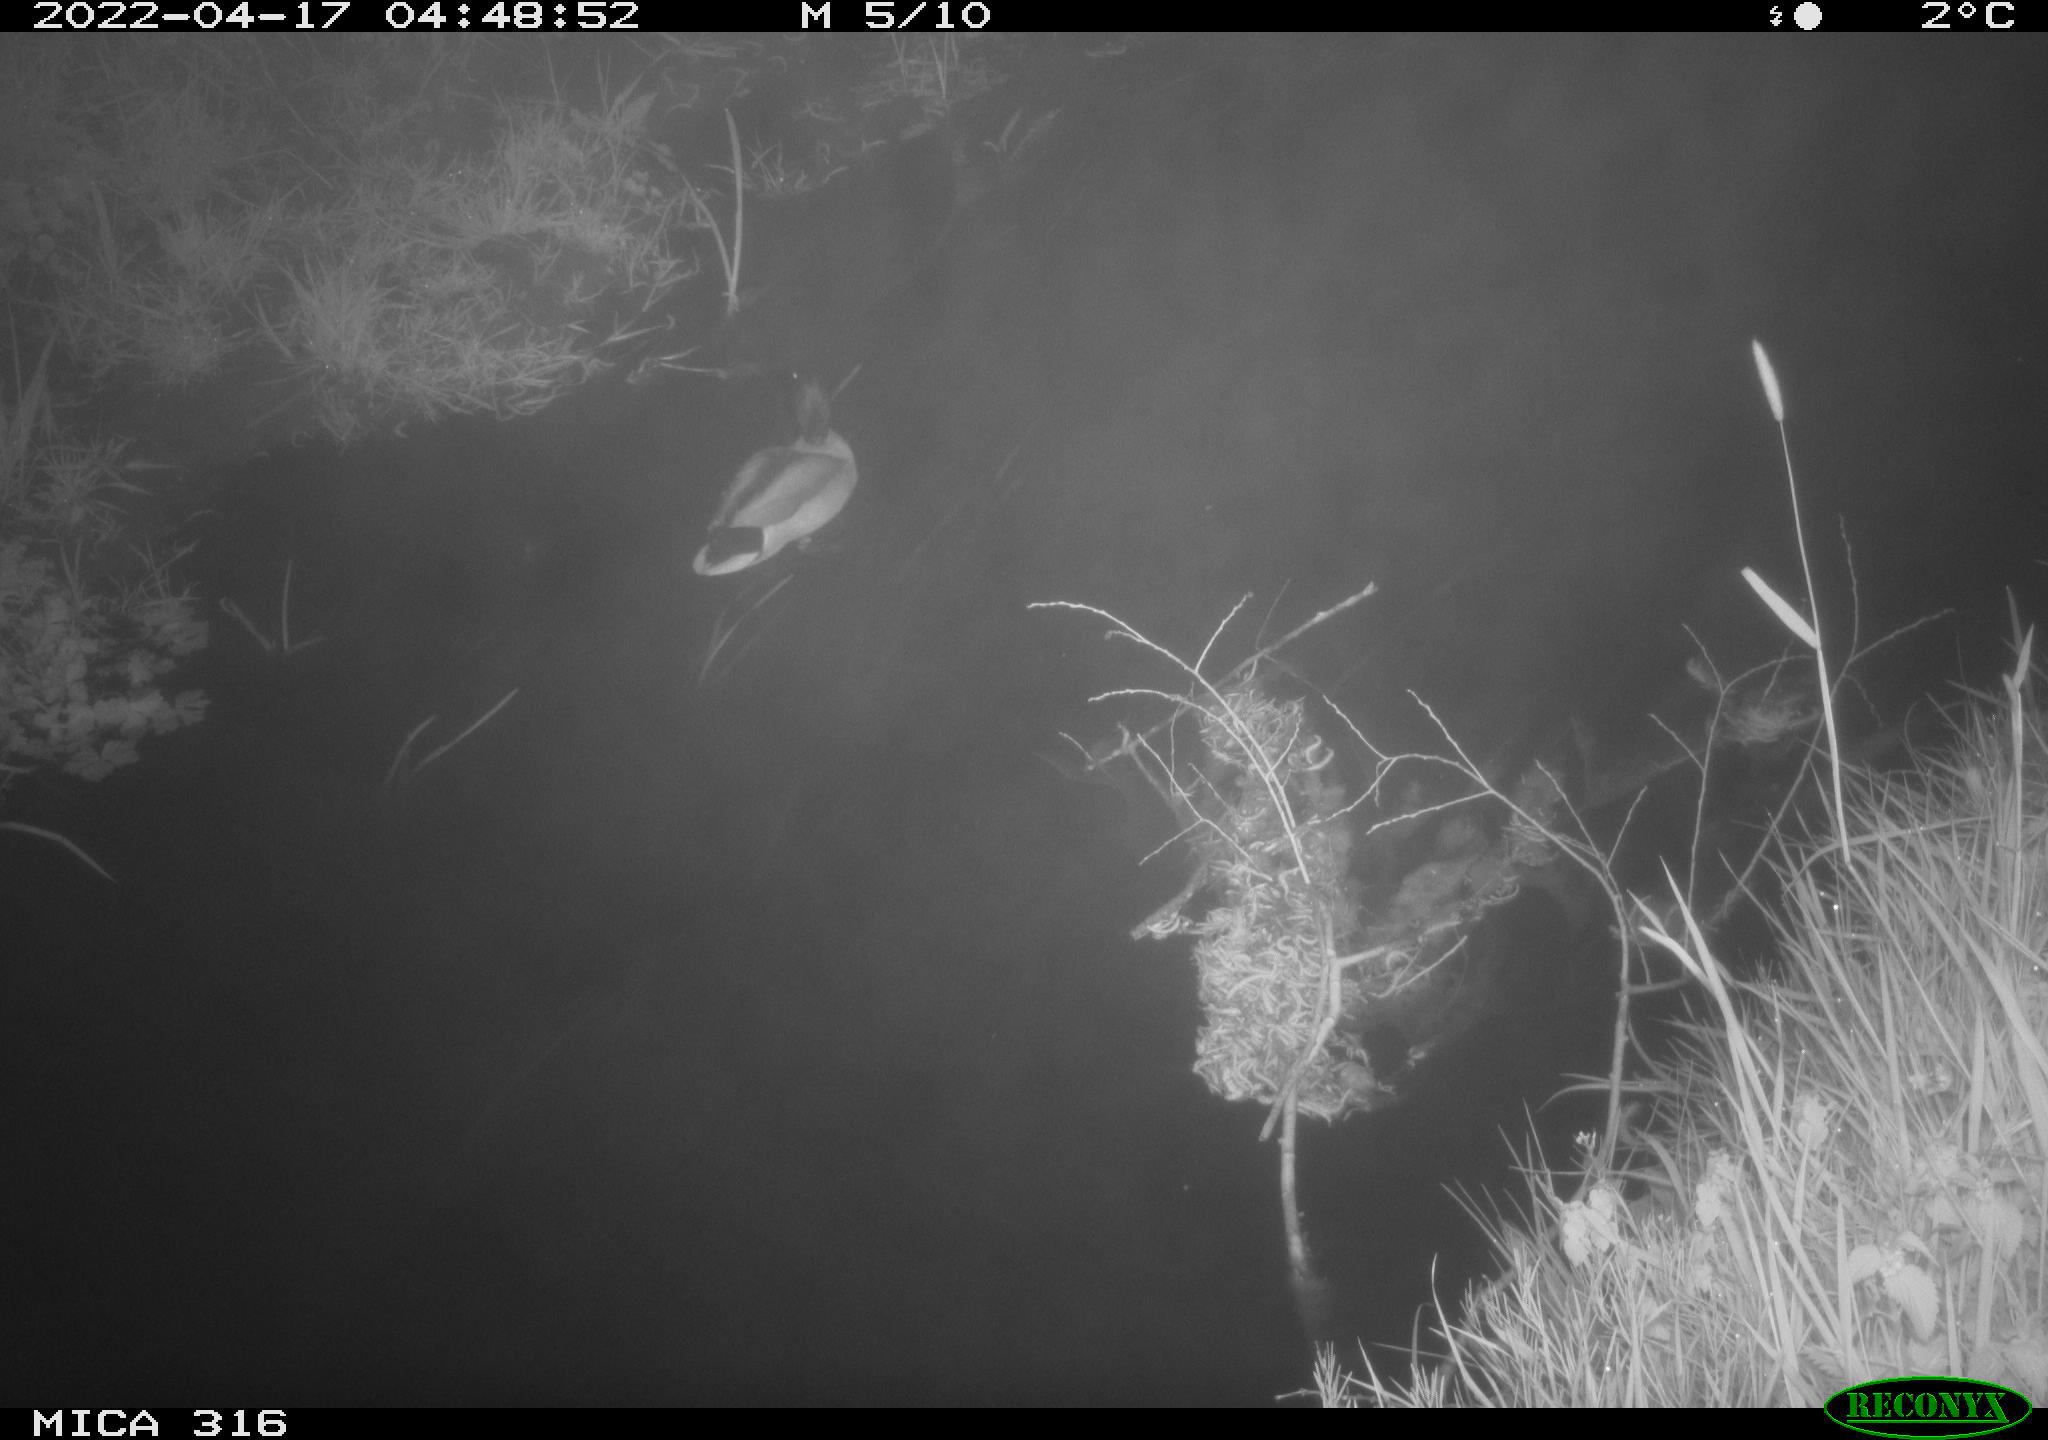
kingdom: Animalia
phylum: Chordata
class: Aves
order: Anseriformes
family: Anatidae
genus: Anas
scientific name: Anas platyrhynchos
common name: Mallard
